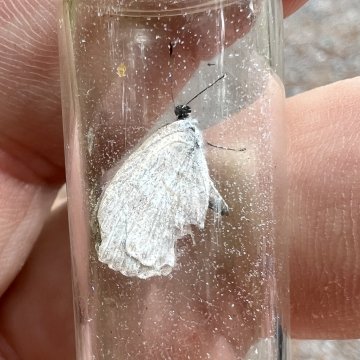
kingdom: Animalia
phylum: Arthropoda
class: Insecta
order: Lepidoptera
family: Lycaenidae
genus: Cyaniris
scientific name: Cyaniris neglecta
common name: Summer Azure
